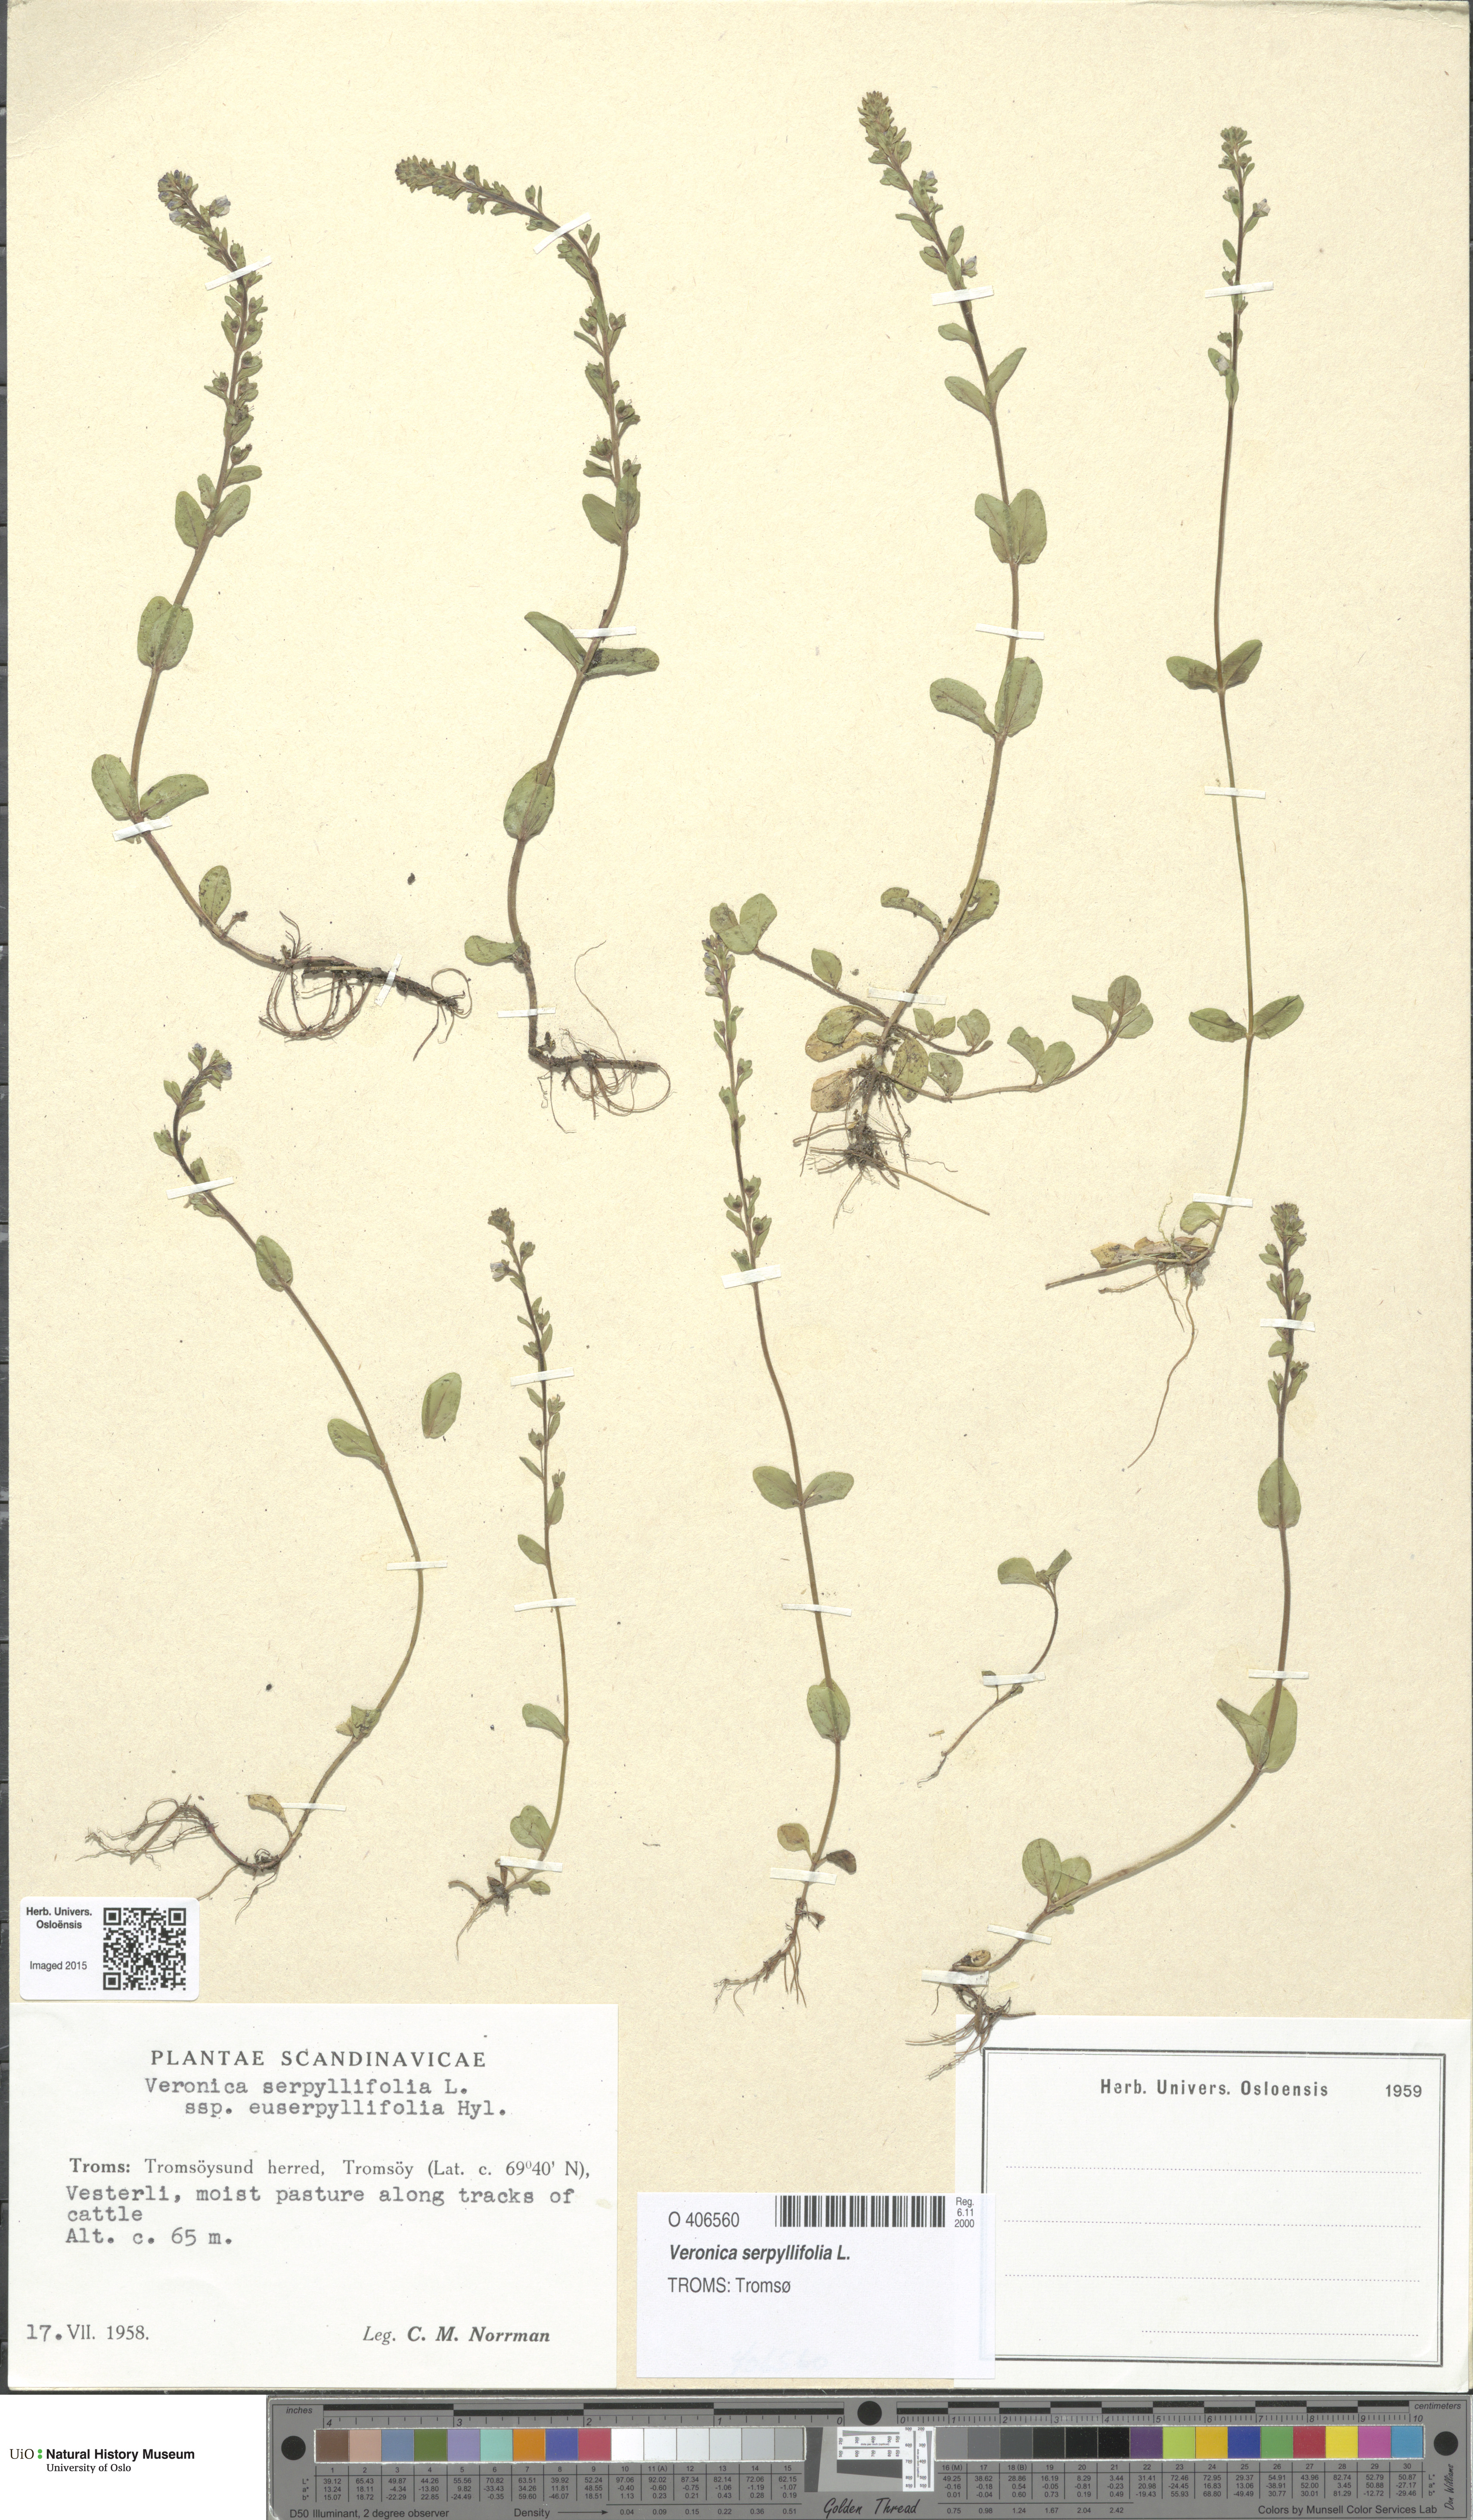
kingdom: Plantae
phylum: Tracheophyta
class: Magnoliopsida
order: Lamiales
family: Plantaginaceae
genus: Veronica
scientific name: Veronica serpyllifolia
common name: Thyme-leaved speedwell
